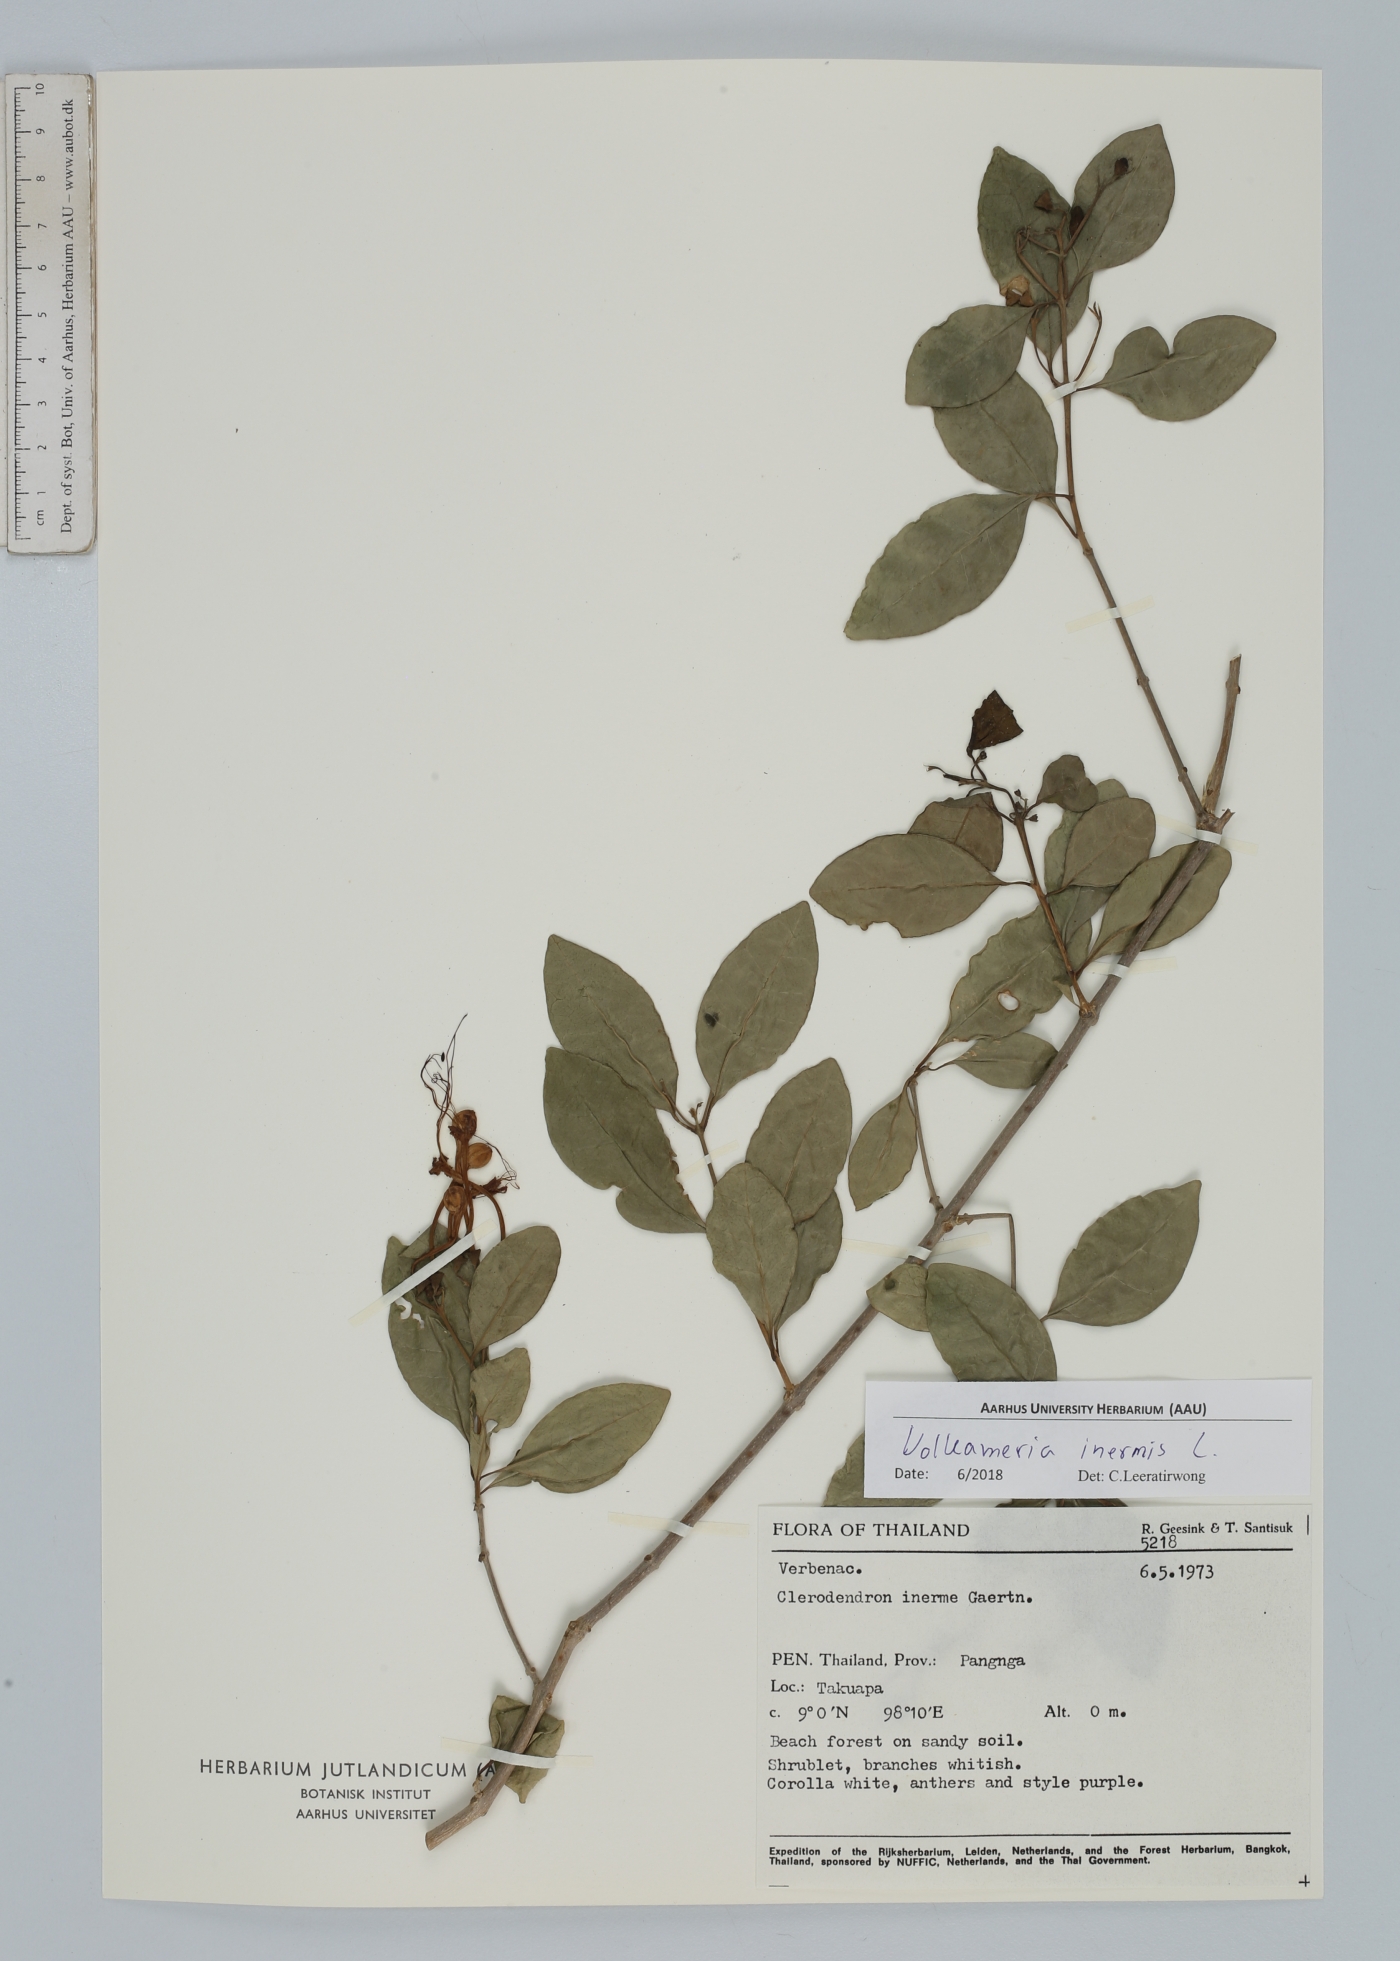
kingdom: Plantae
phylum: Tracheophyta
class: Magnoliopsida
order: Lamiales
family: Lamiaceae
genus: Volkameria
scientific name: Volkameria inermis
